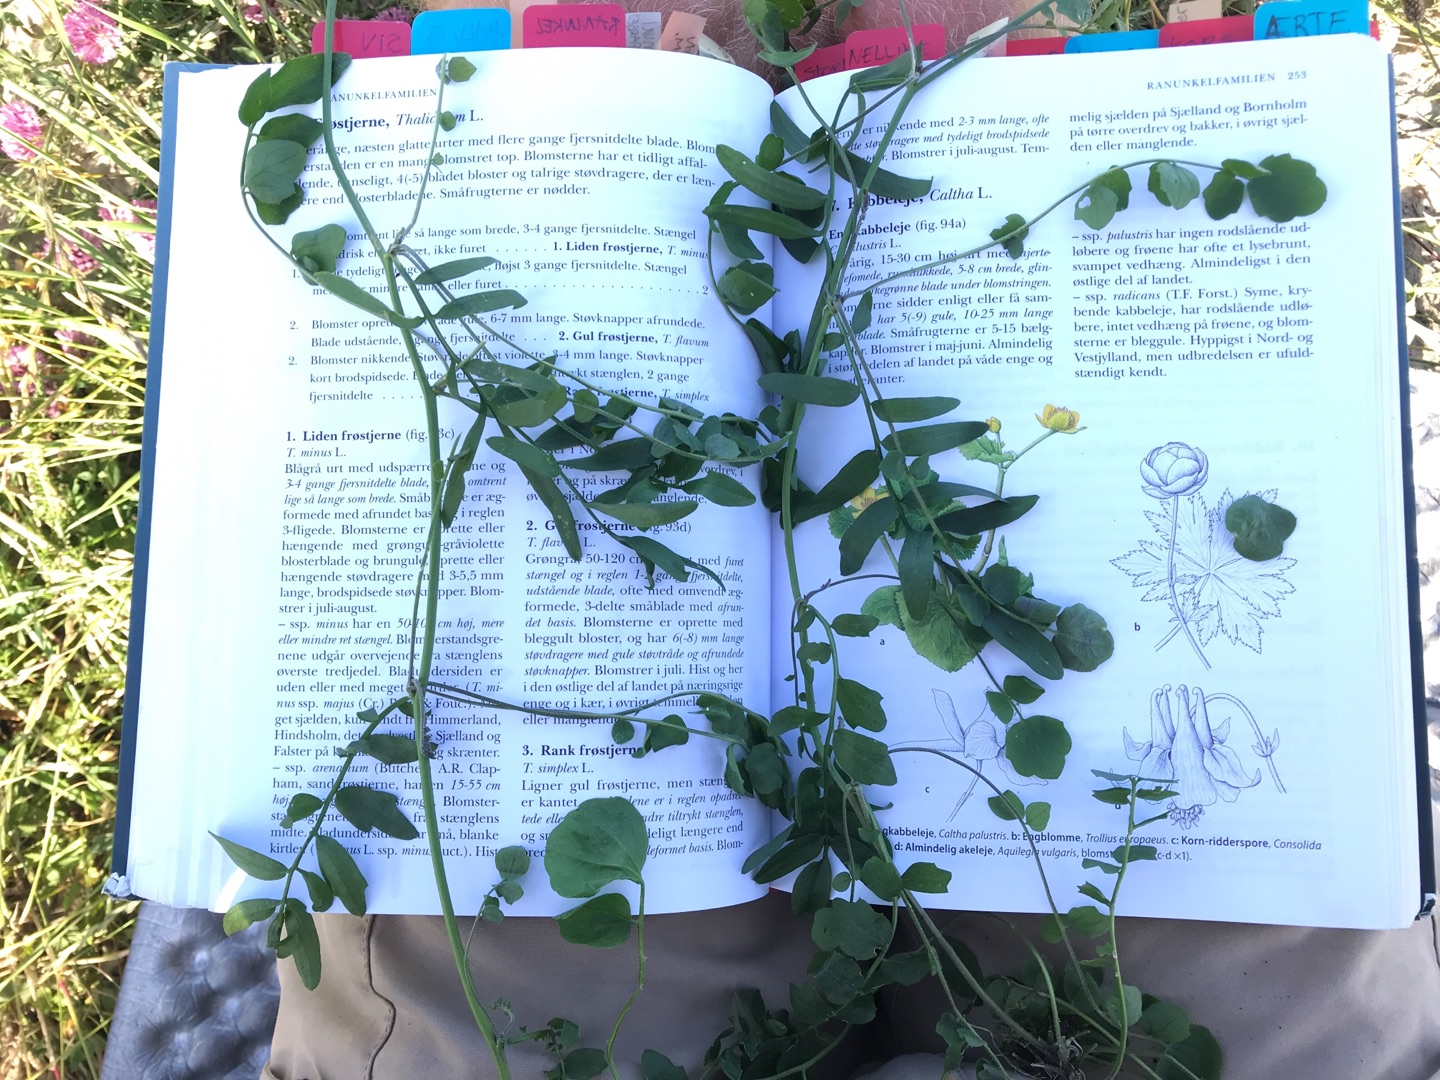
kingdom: Plantae
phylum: Tracheophyta
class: Magnoliopsida
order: Brassicales
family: Brassicaceae
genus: Cardamine
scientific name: Cardamine
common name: Springklapslægten
